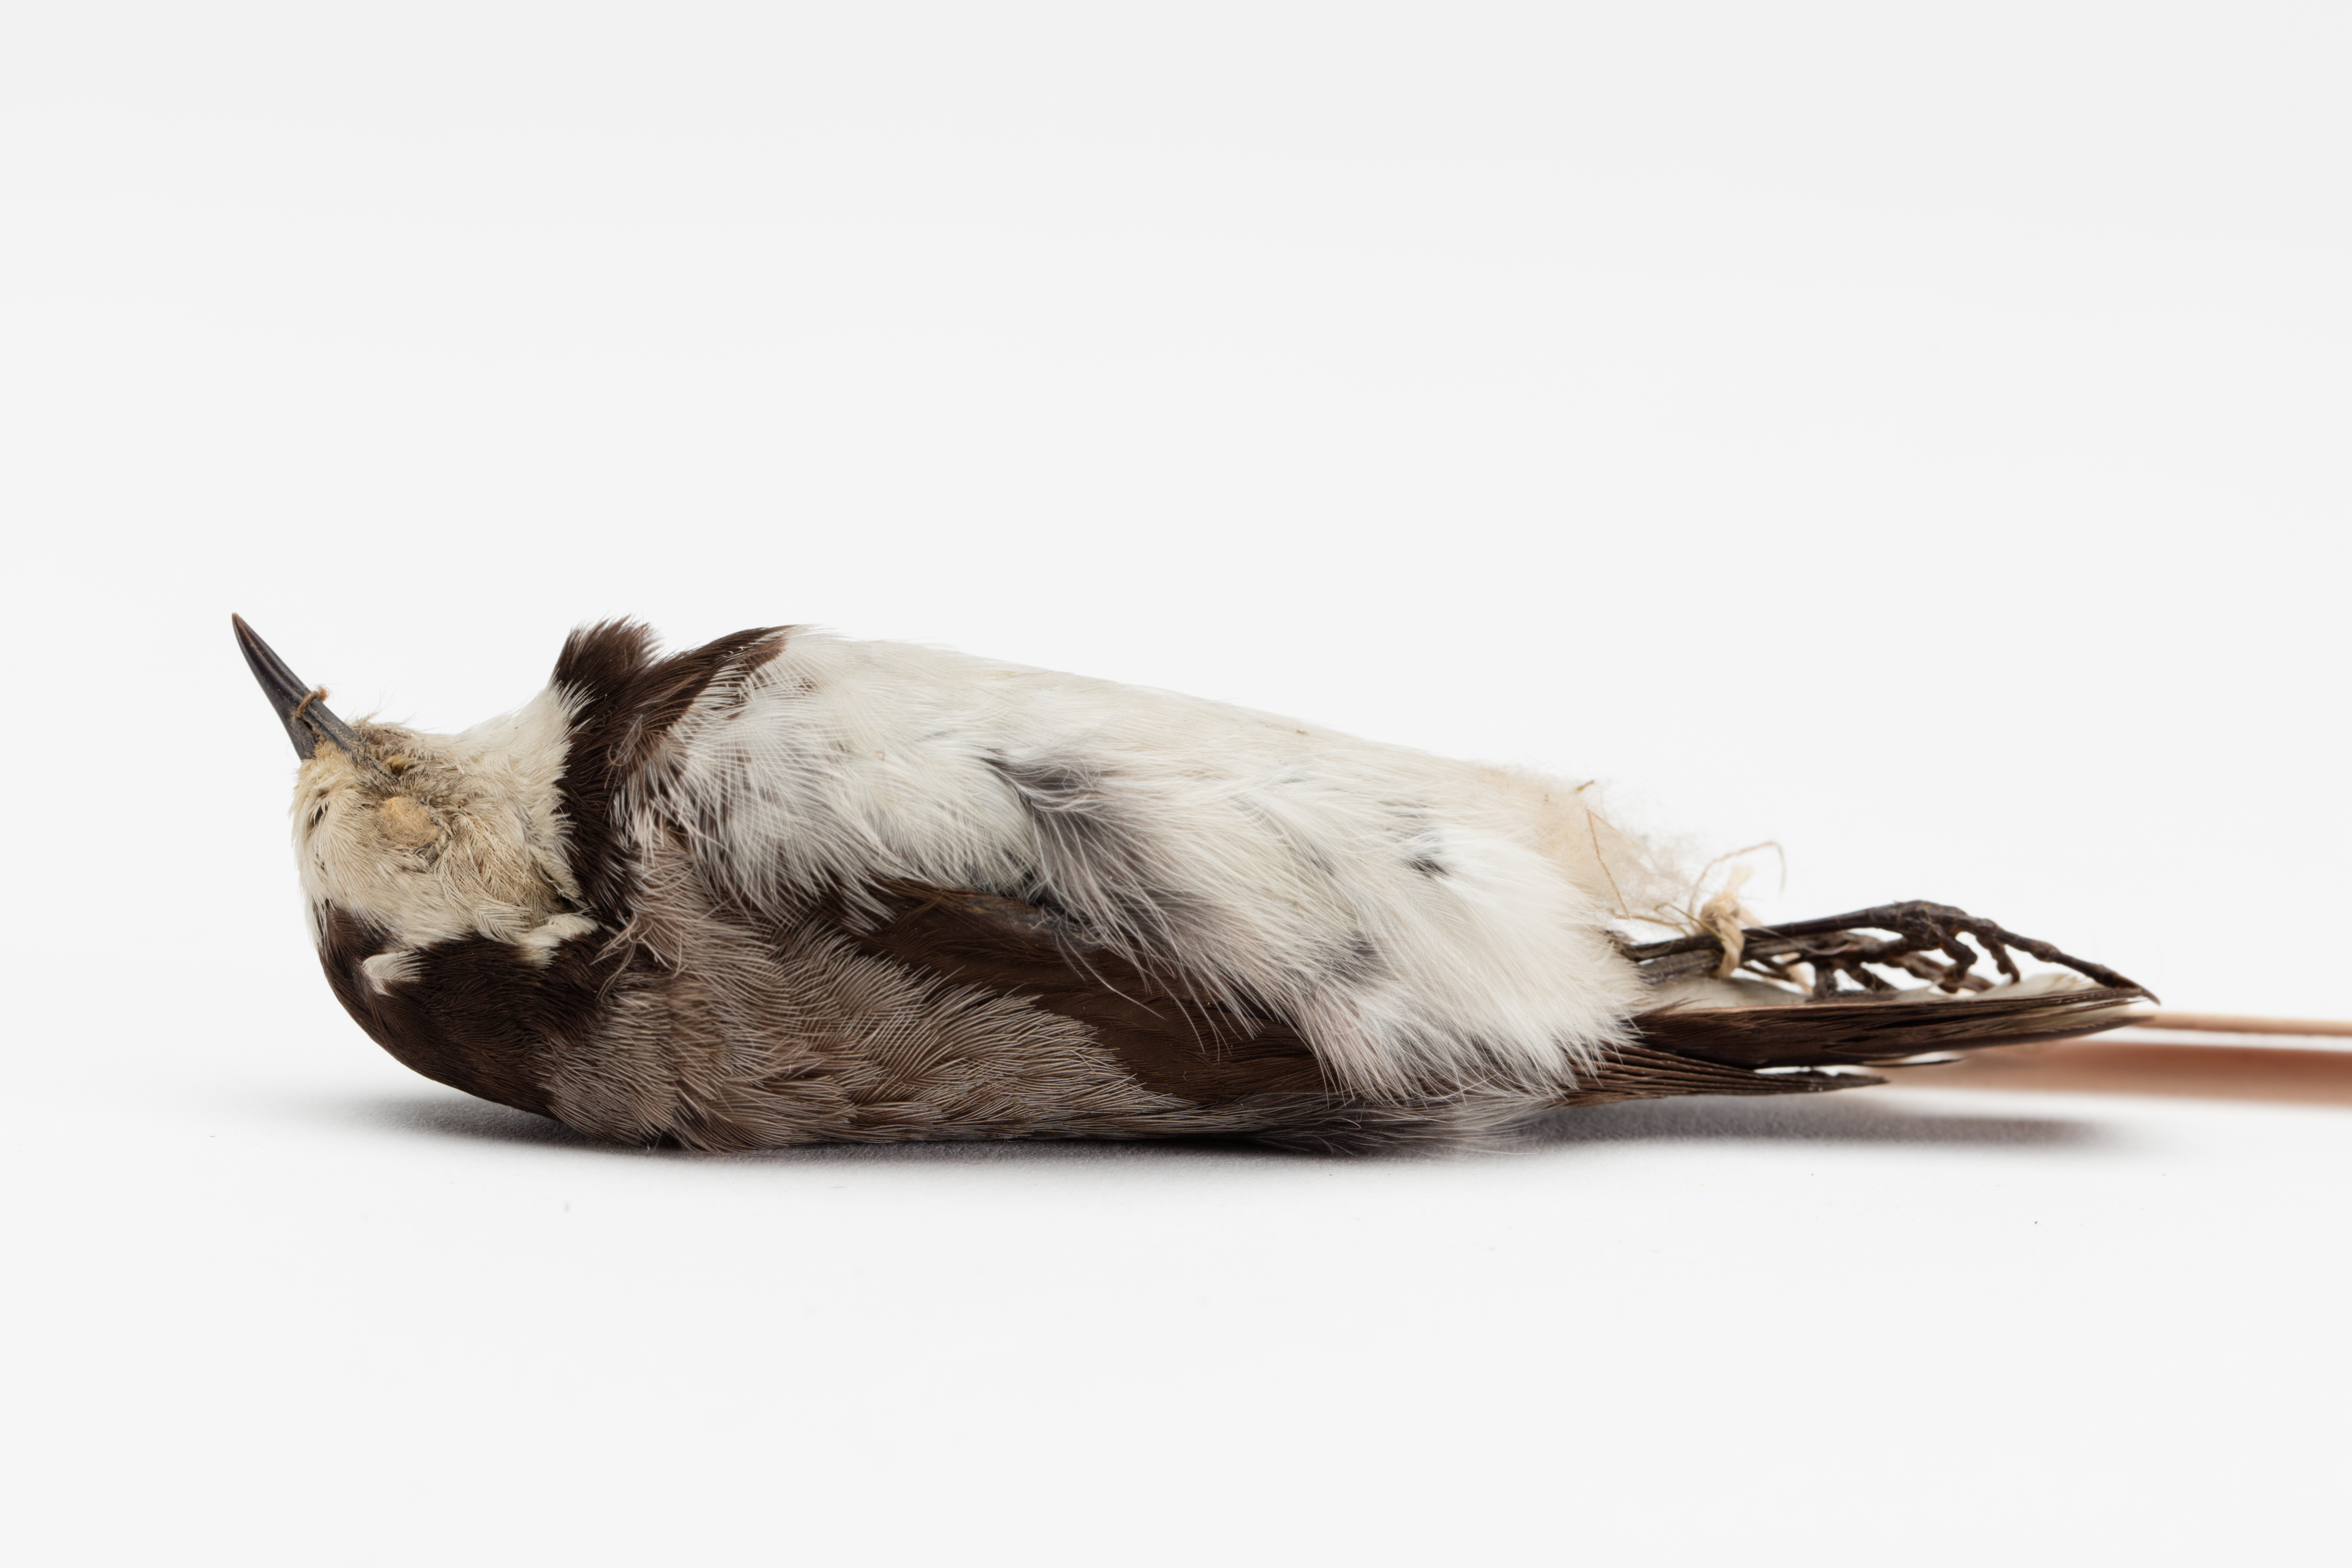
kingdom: Animalia
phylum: Chordata
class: Aves
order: Passeriformes
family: Meliphagidae
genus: Epthianura
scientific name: Epthianura albifrons
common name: White-fronted chat
